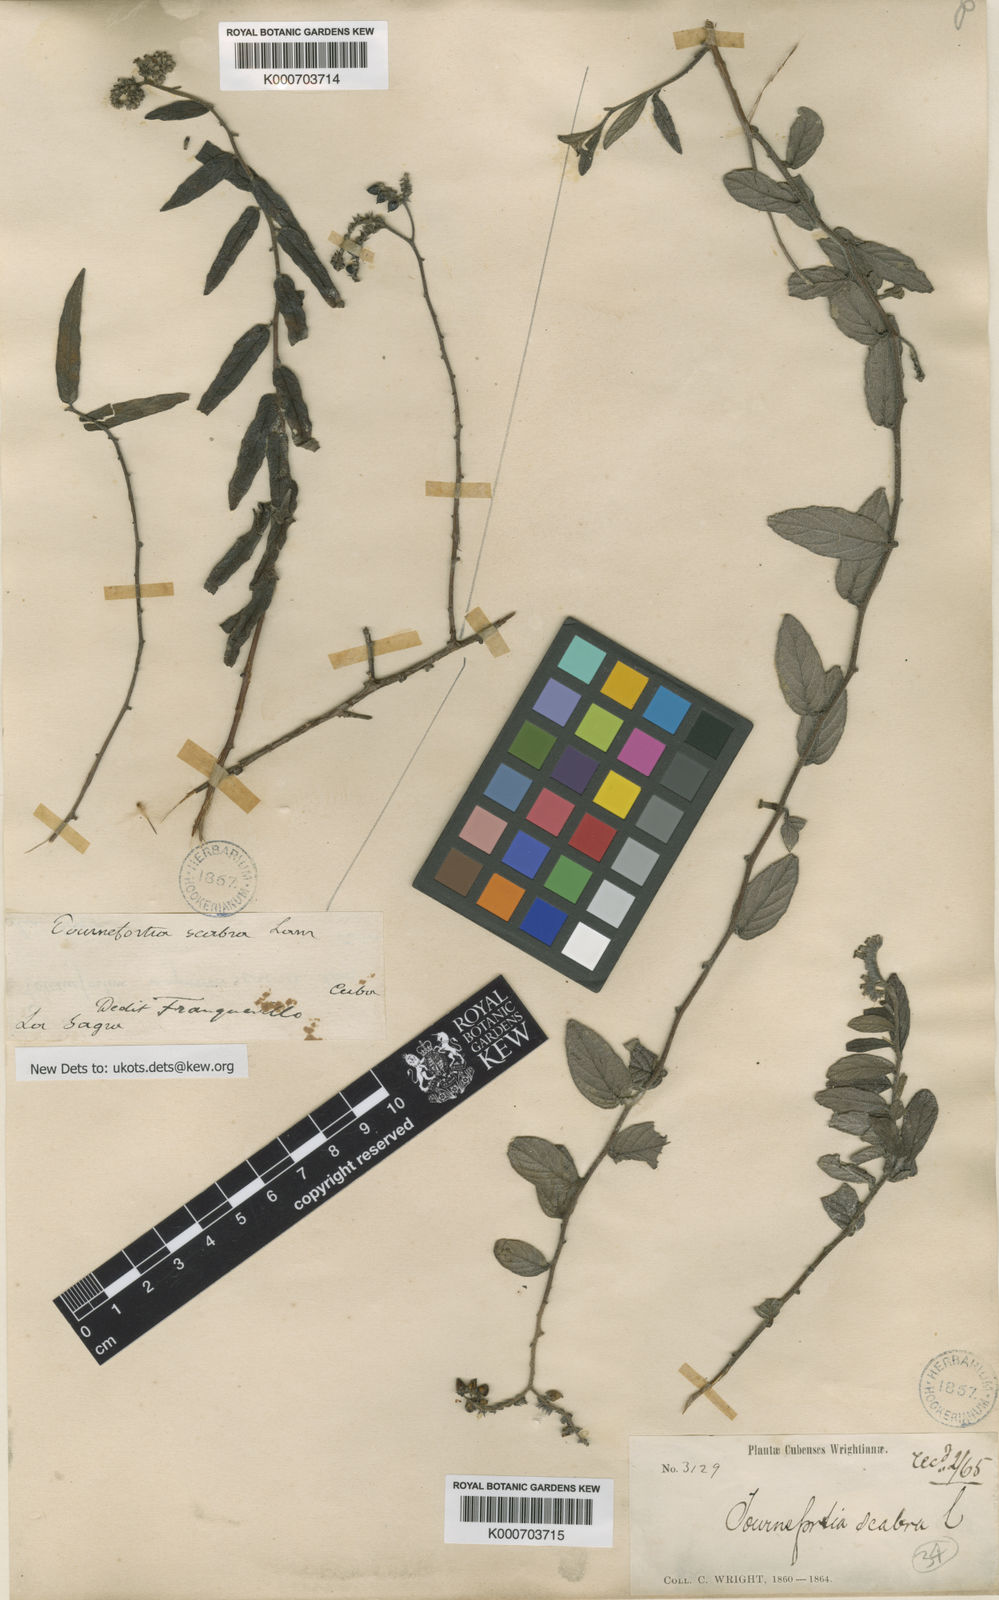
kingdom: Plantae
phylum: Tracheophyta
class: Magnoliopsida
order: Boraginales
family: Heliotropiaceae
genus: Heliotropium
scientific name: Heliotropium lamarckii
